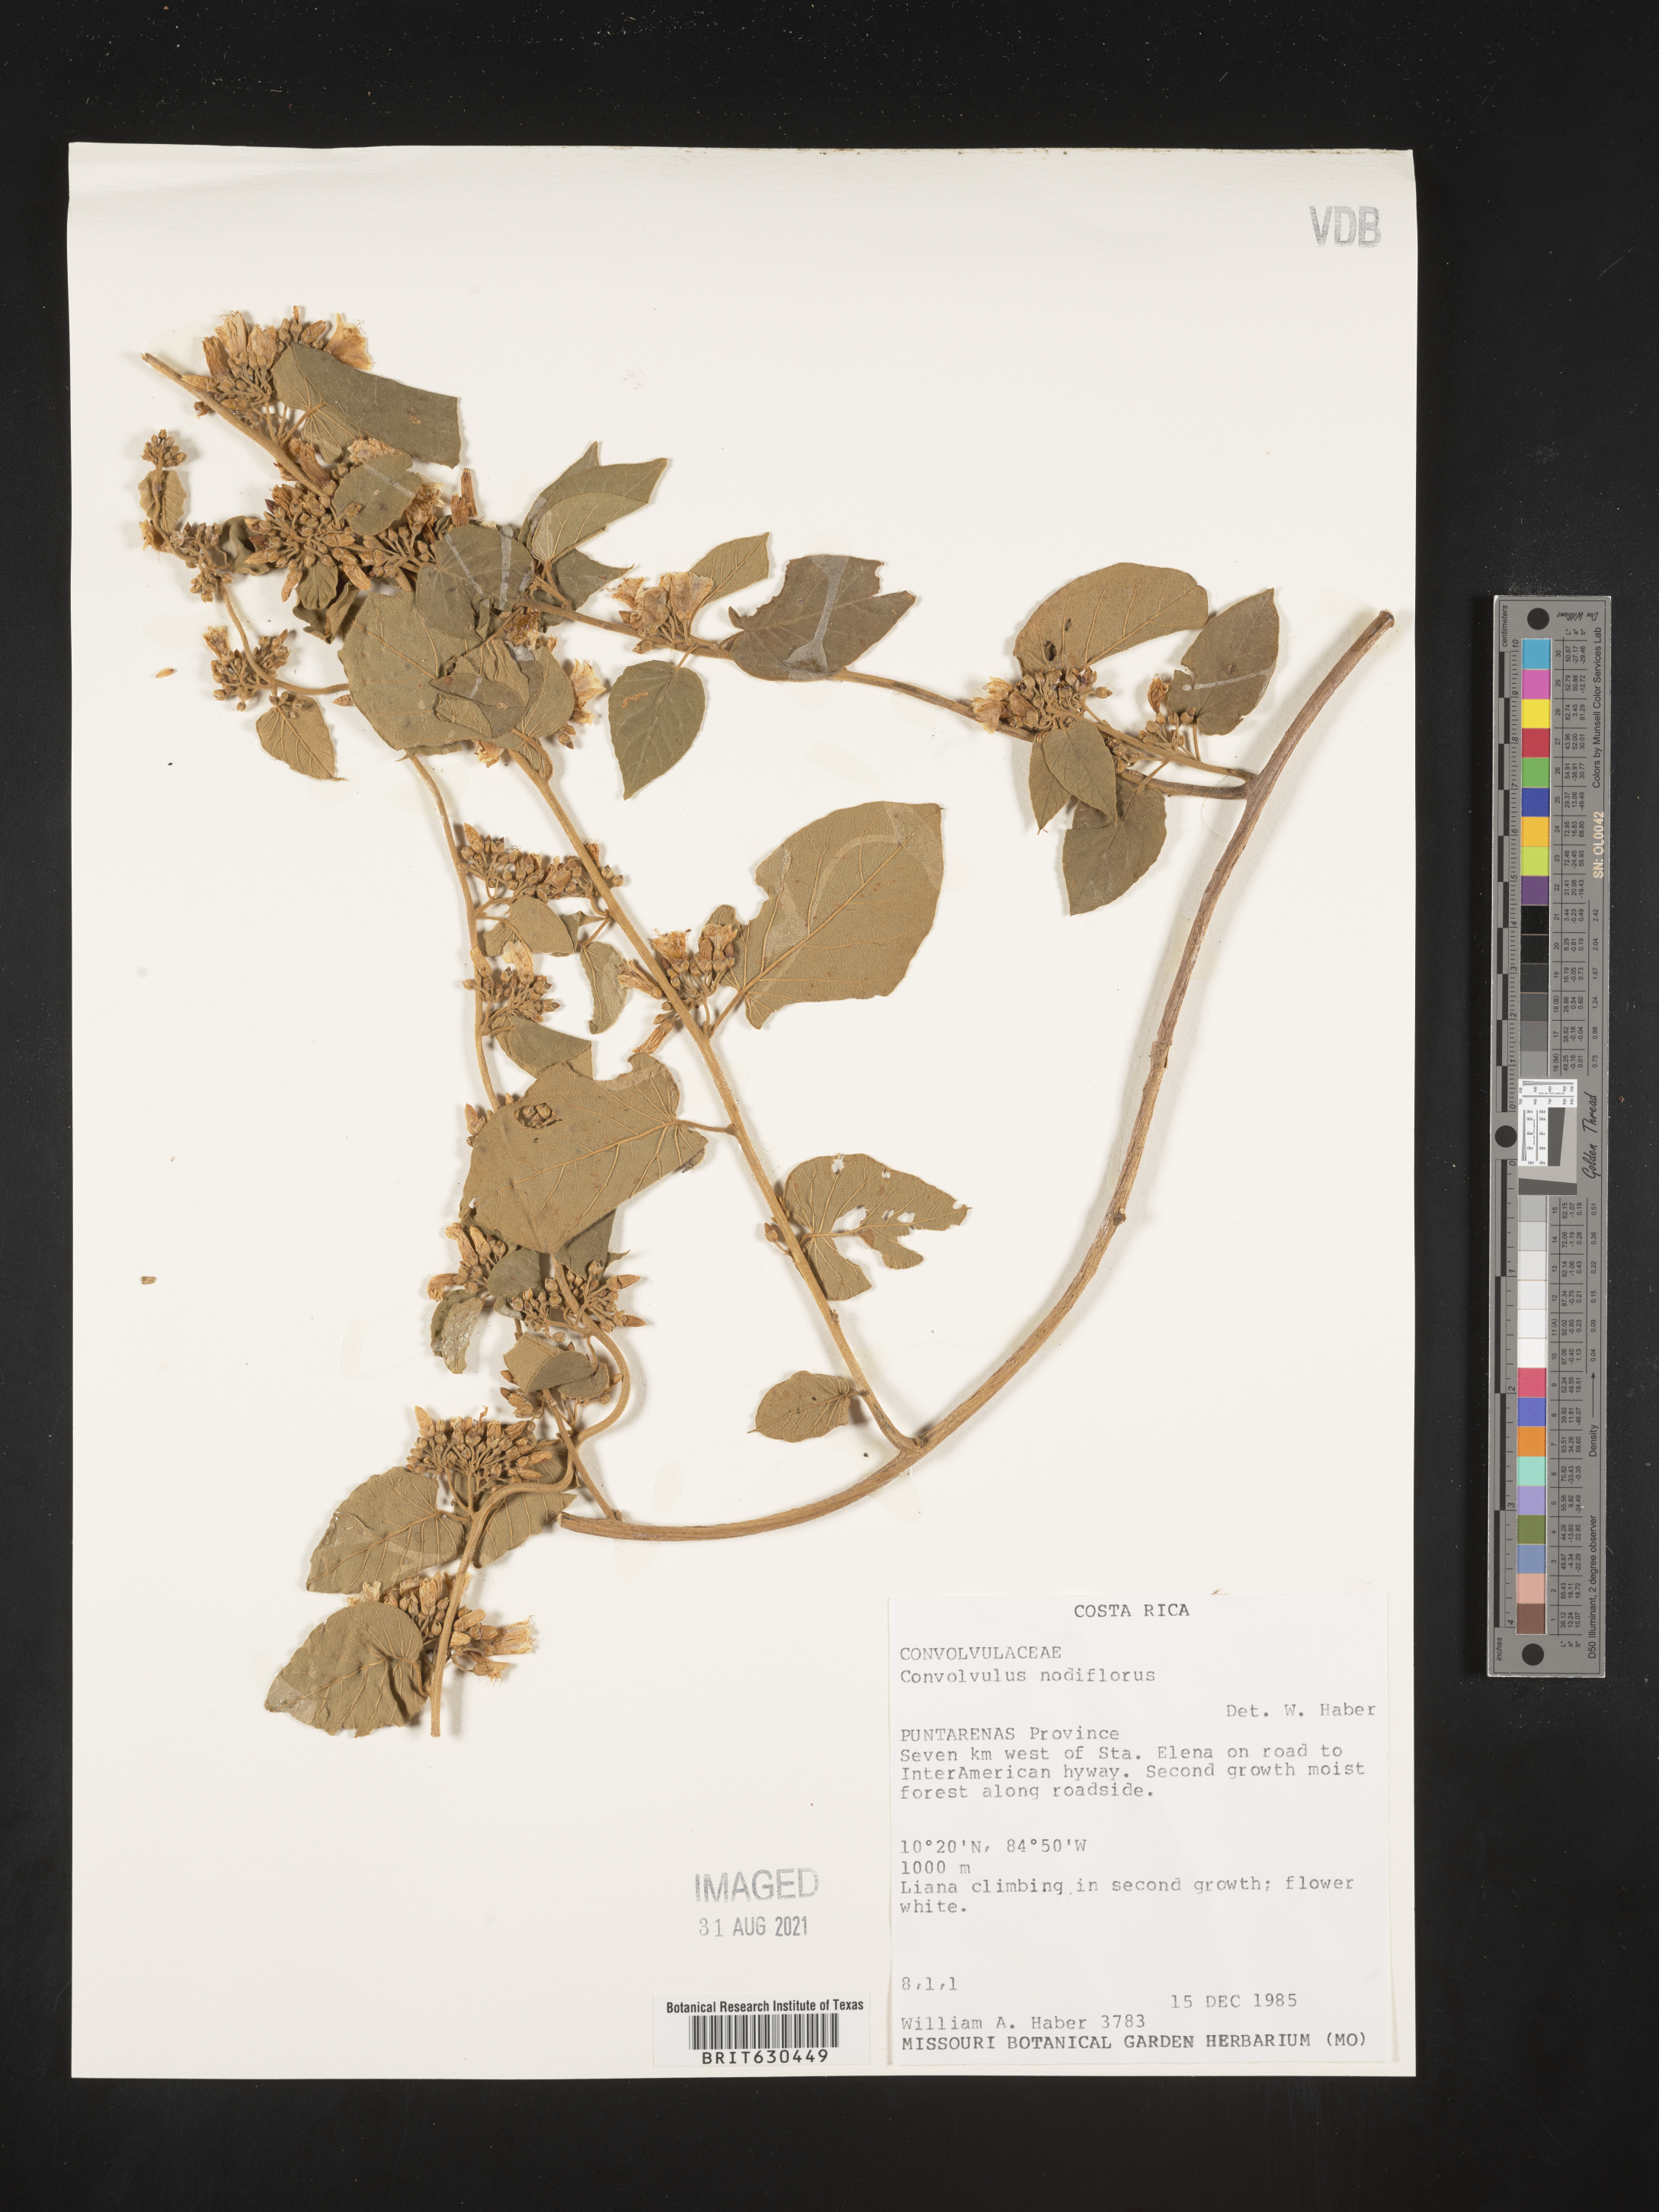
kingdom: Plantae
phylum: Tracheophyta
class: Magnoliopsida
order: Solanales
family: Convolvulaceae
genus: Convolvulus
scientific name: Convolvulus nodiflorus
